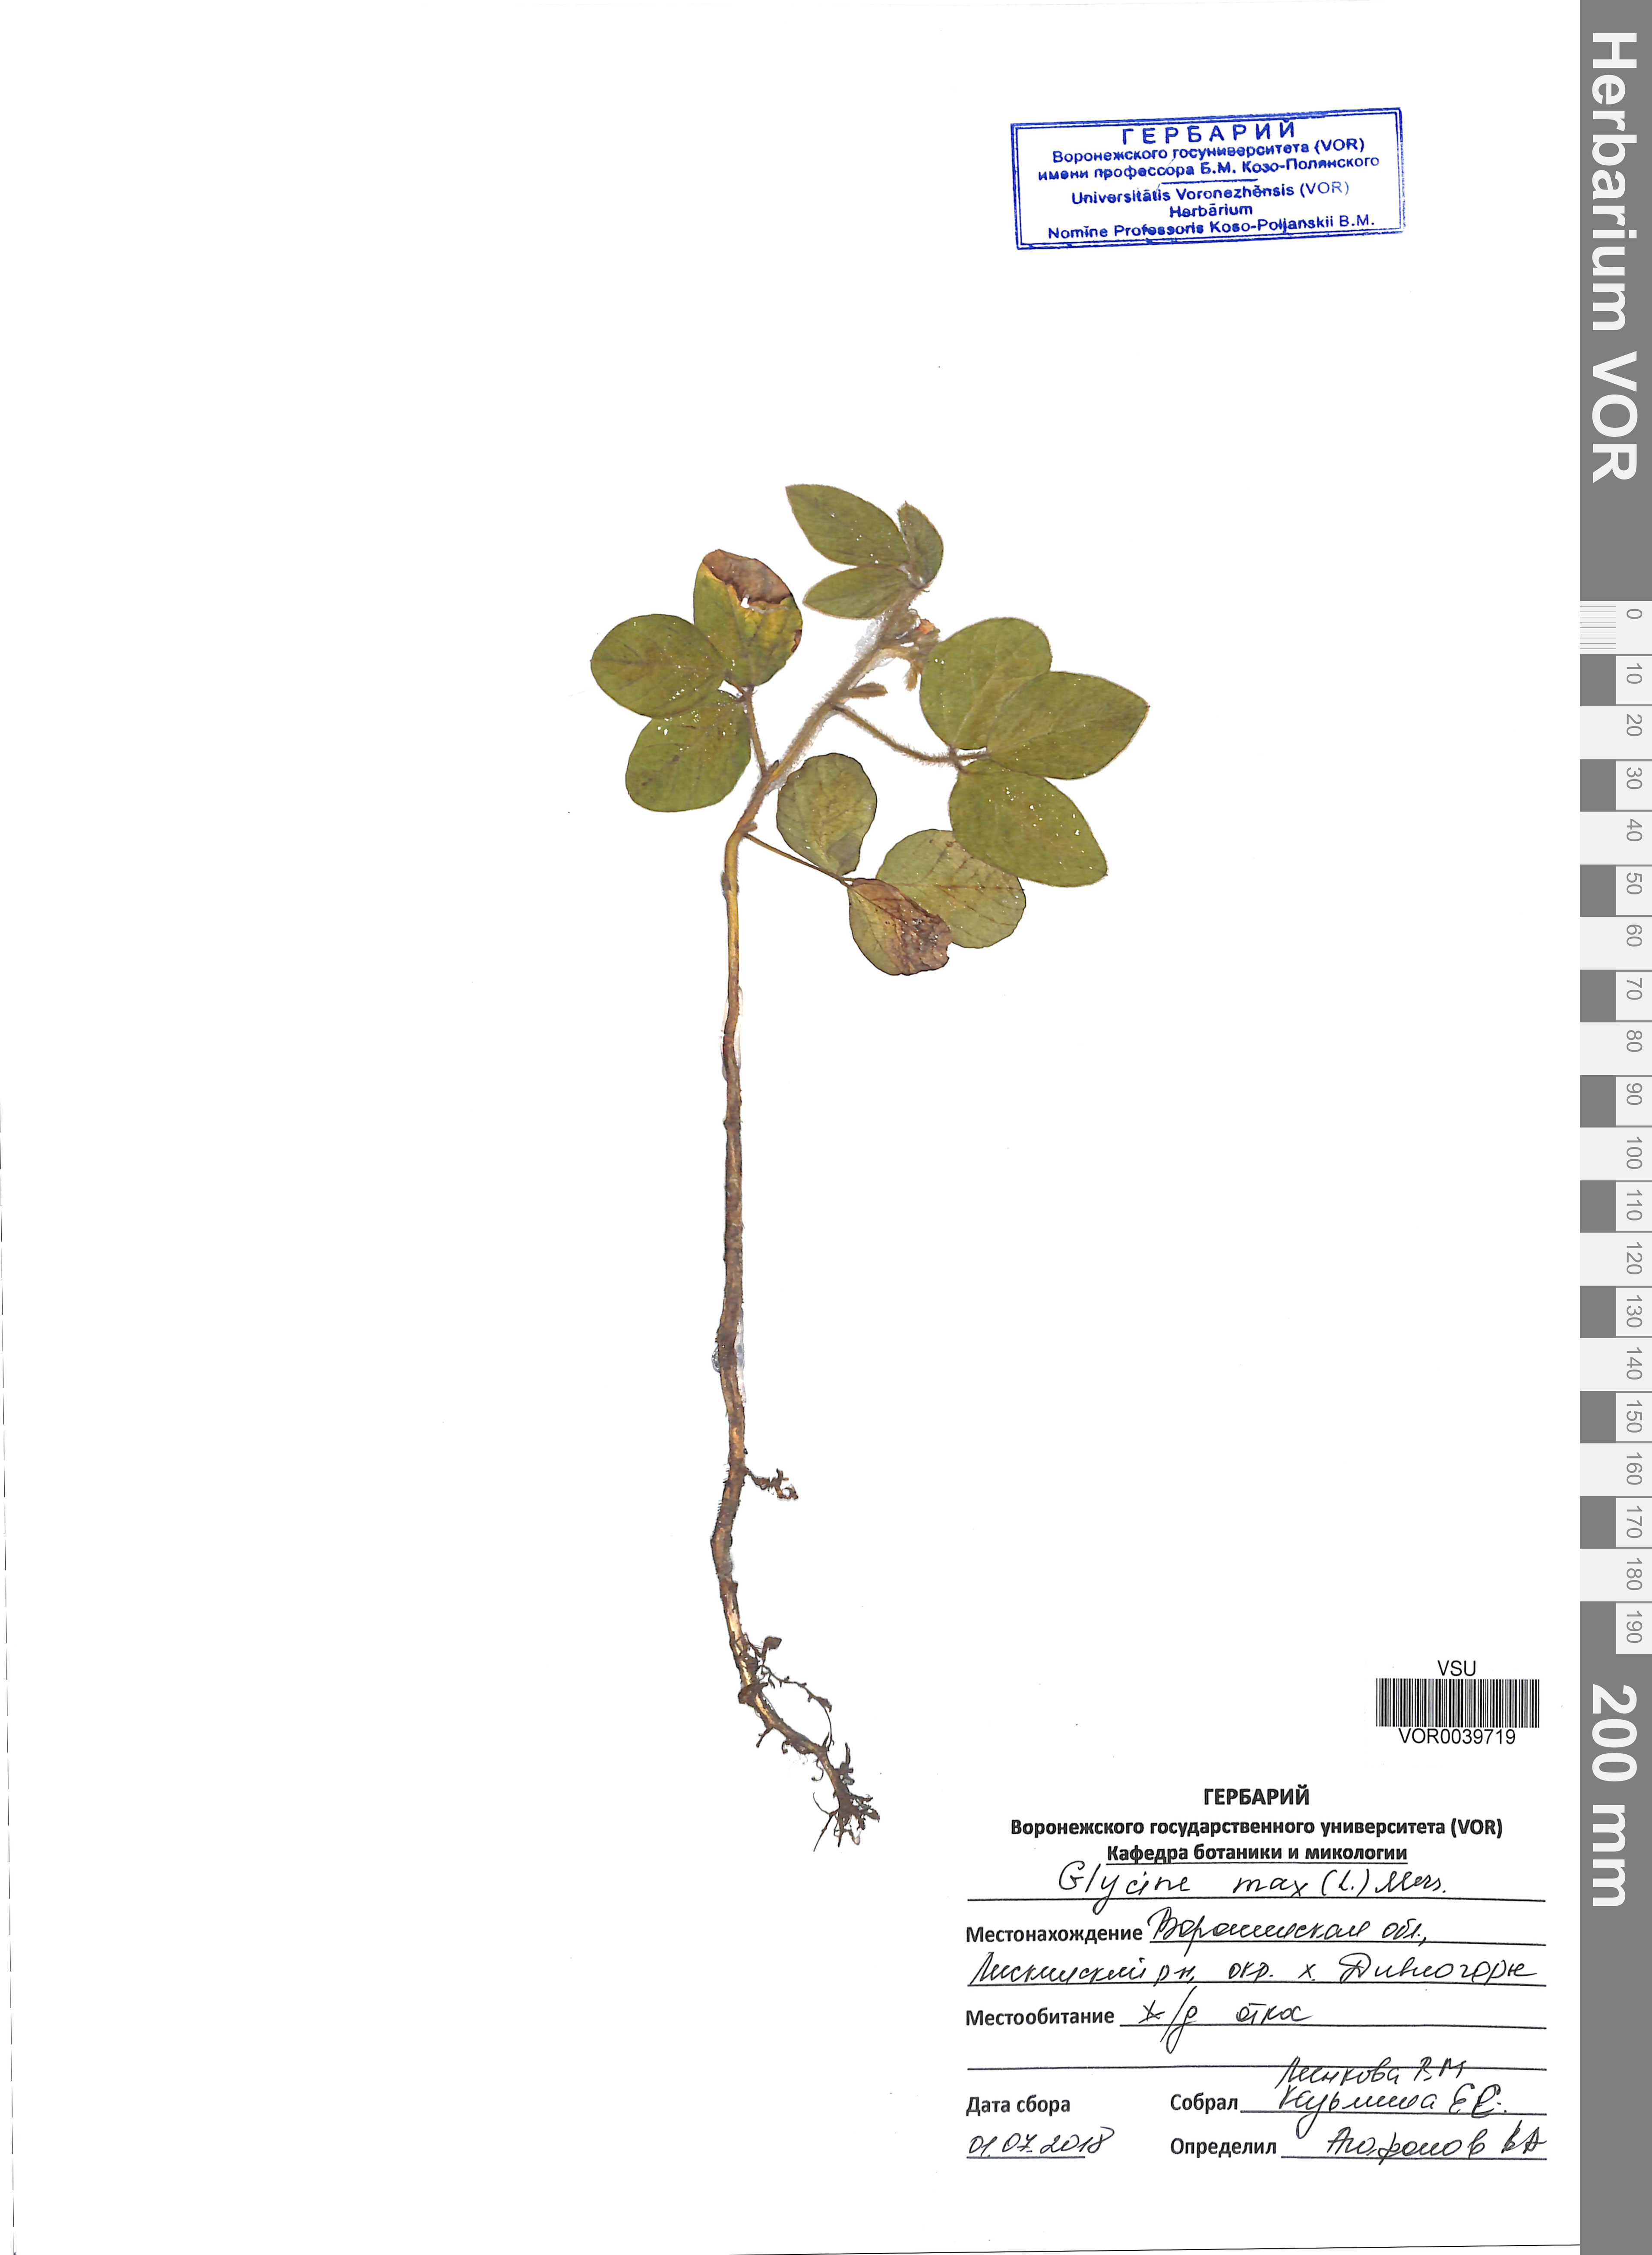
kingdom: Plantae
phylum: Tracheophyta
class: Magnoliopsida
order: Fabales
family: Fabaceae
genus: Glycine
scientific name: Glycine max
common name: Soya-bean
